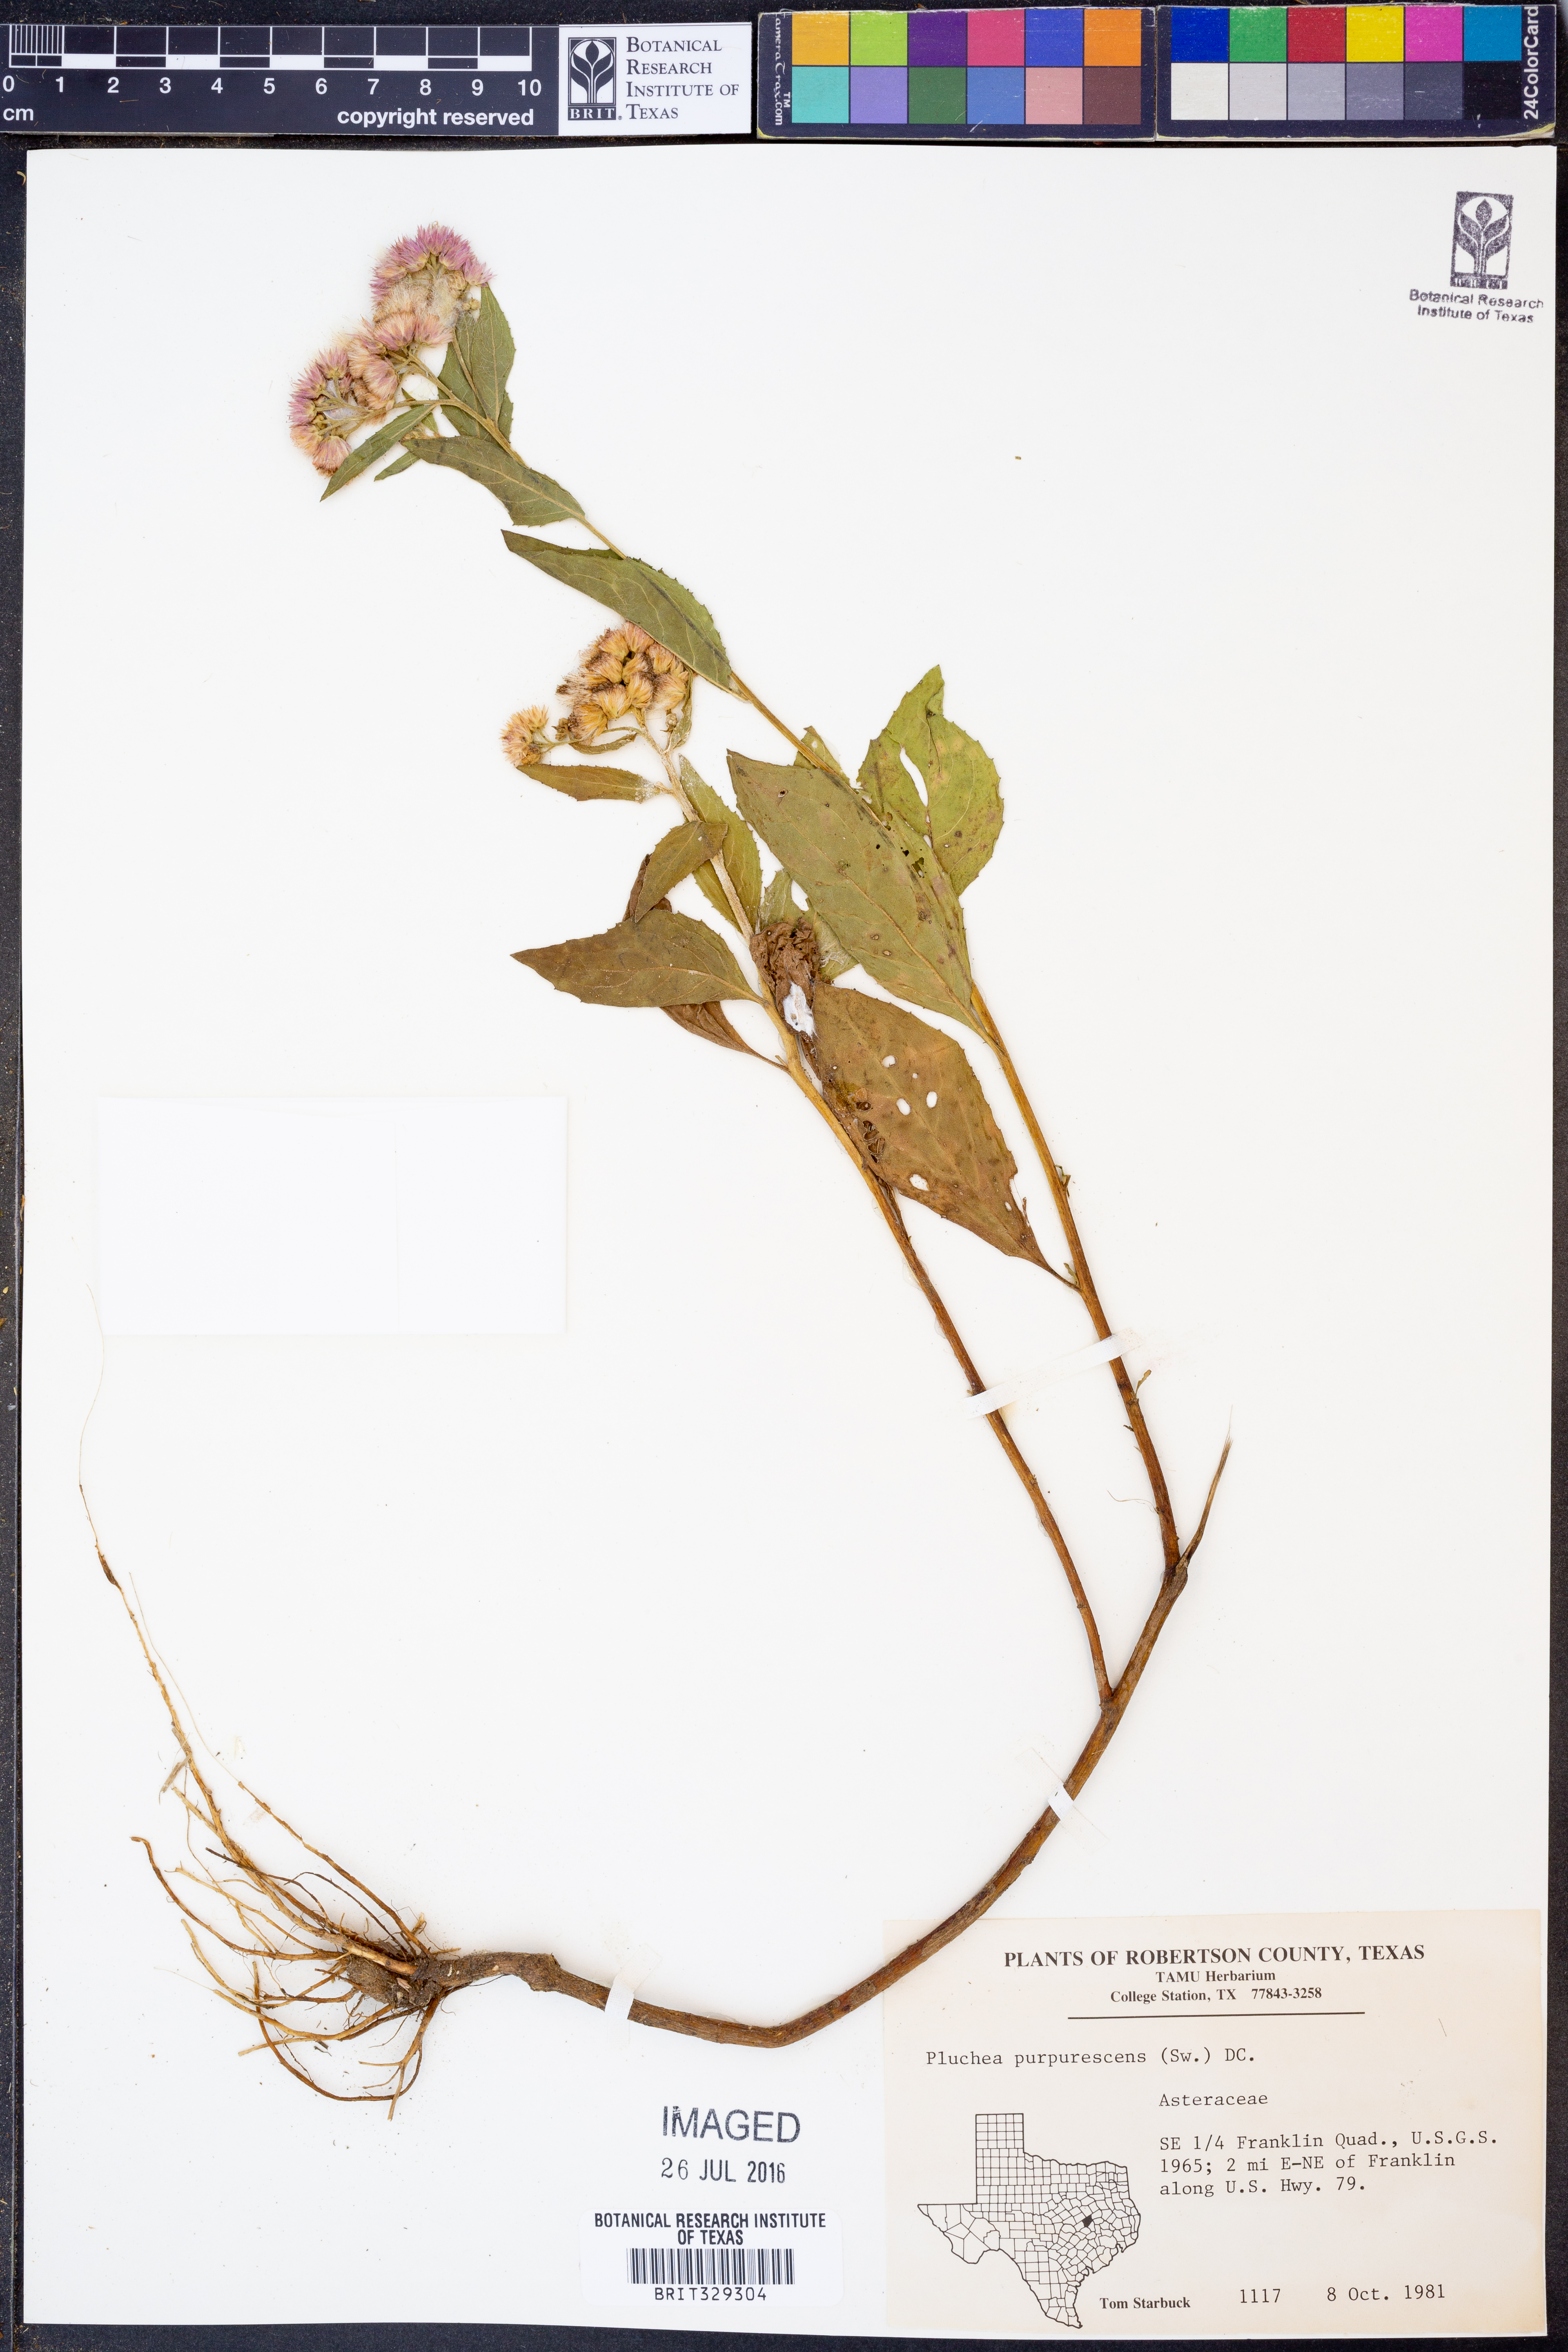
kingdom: Plantae
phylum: Tracheophyta
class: Magnoliopsida
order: Asterales
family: Asteraceae
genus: Pluchea
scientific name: Pluchea odorata
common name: Saltmarsh fleabane
